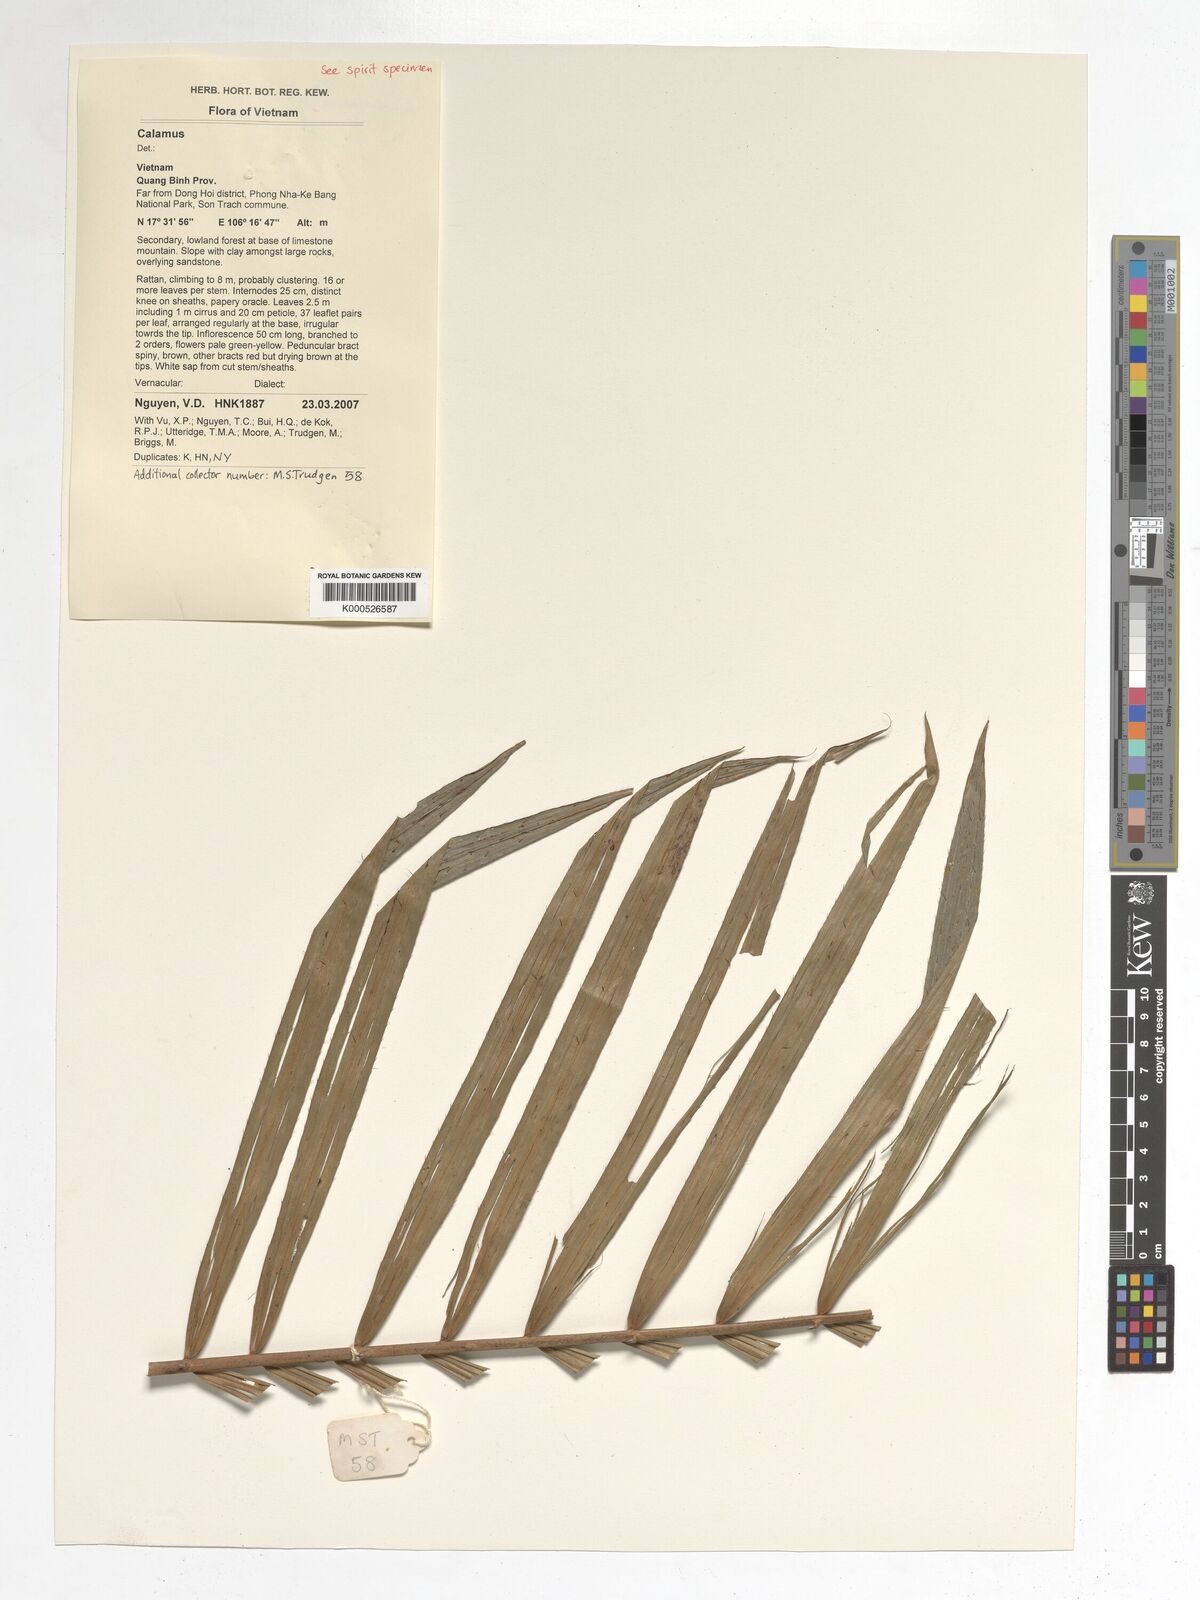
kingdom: Plantae
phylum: Tracheophyta
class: Liliopsida
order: Arecales
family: Arecaceae
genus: Calamus
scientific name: Calamus
